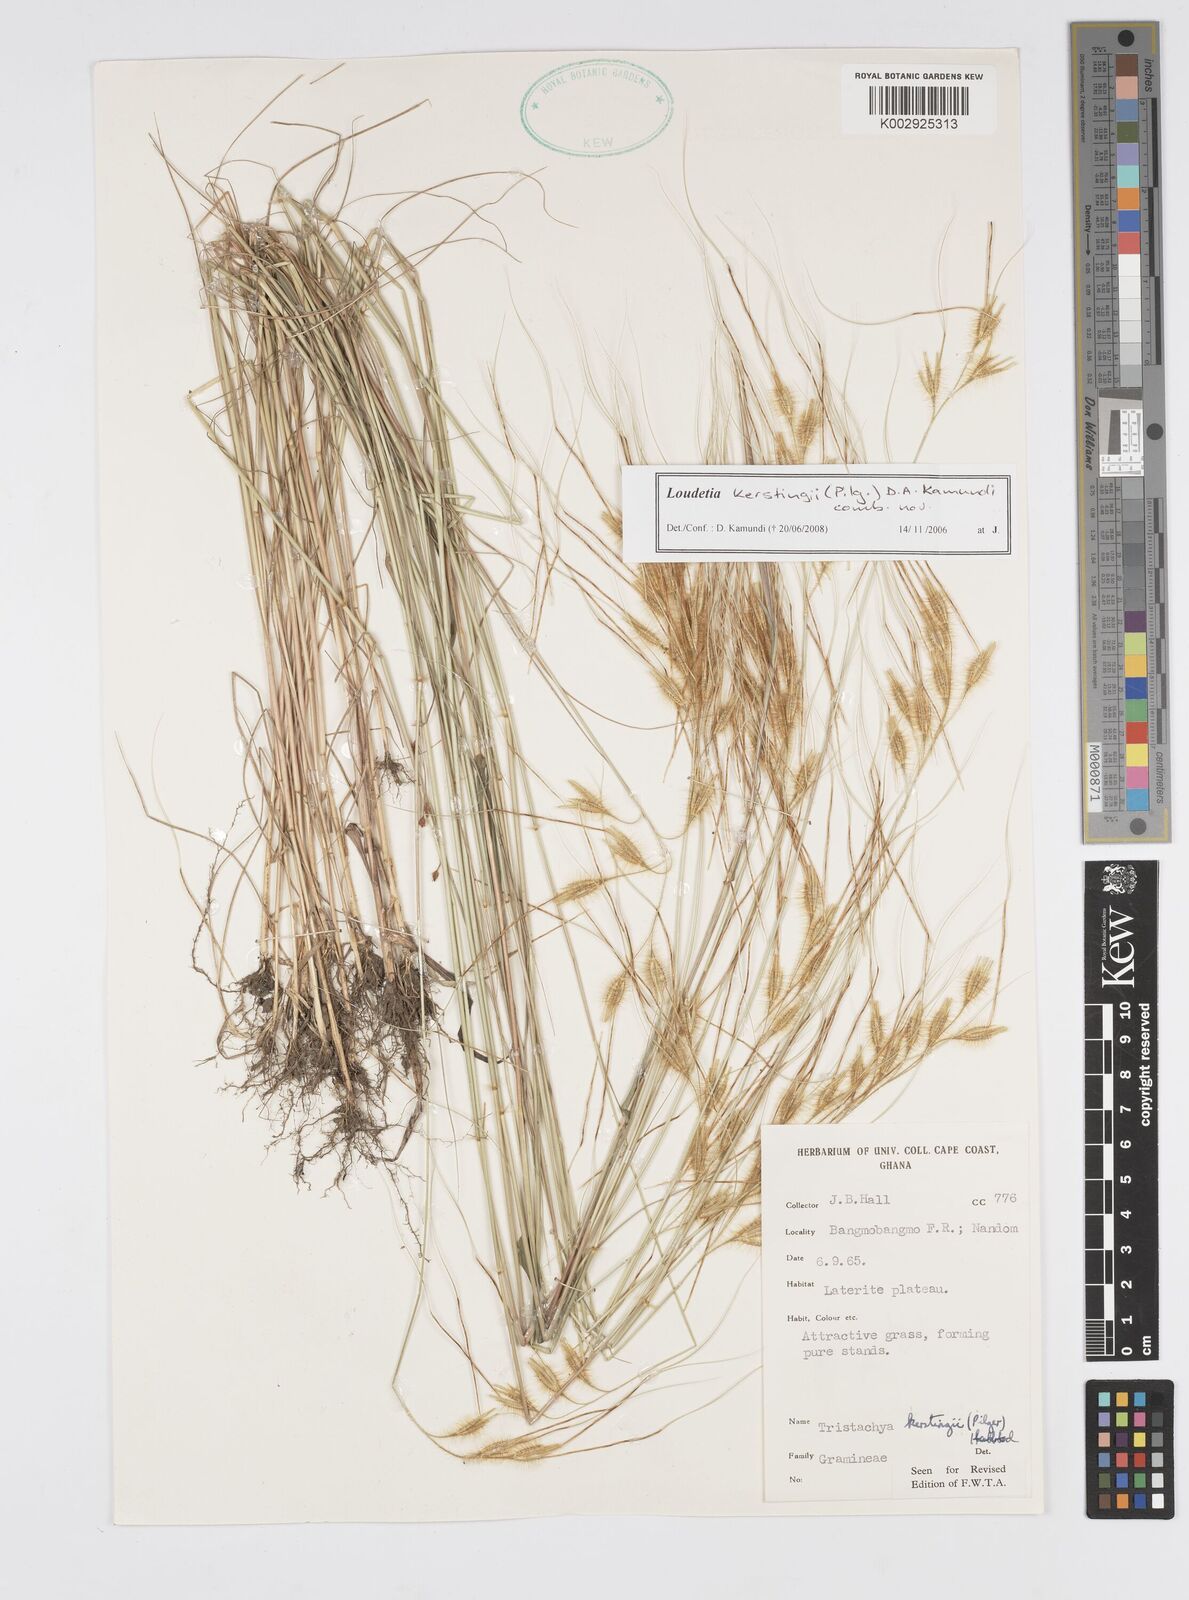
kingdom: Plantae
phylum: Tracheophyta
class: Liliopsida
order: Poales
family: Poaceae
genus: Loudetiopsis
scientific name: Loudetiopsis kerstingii
